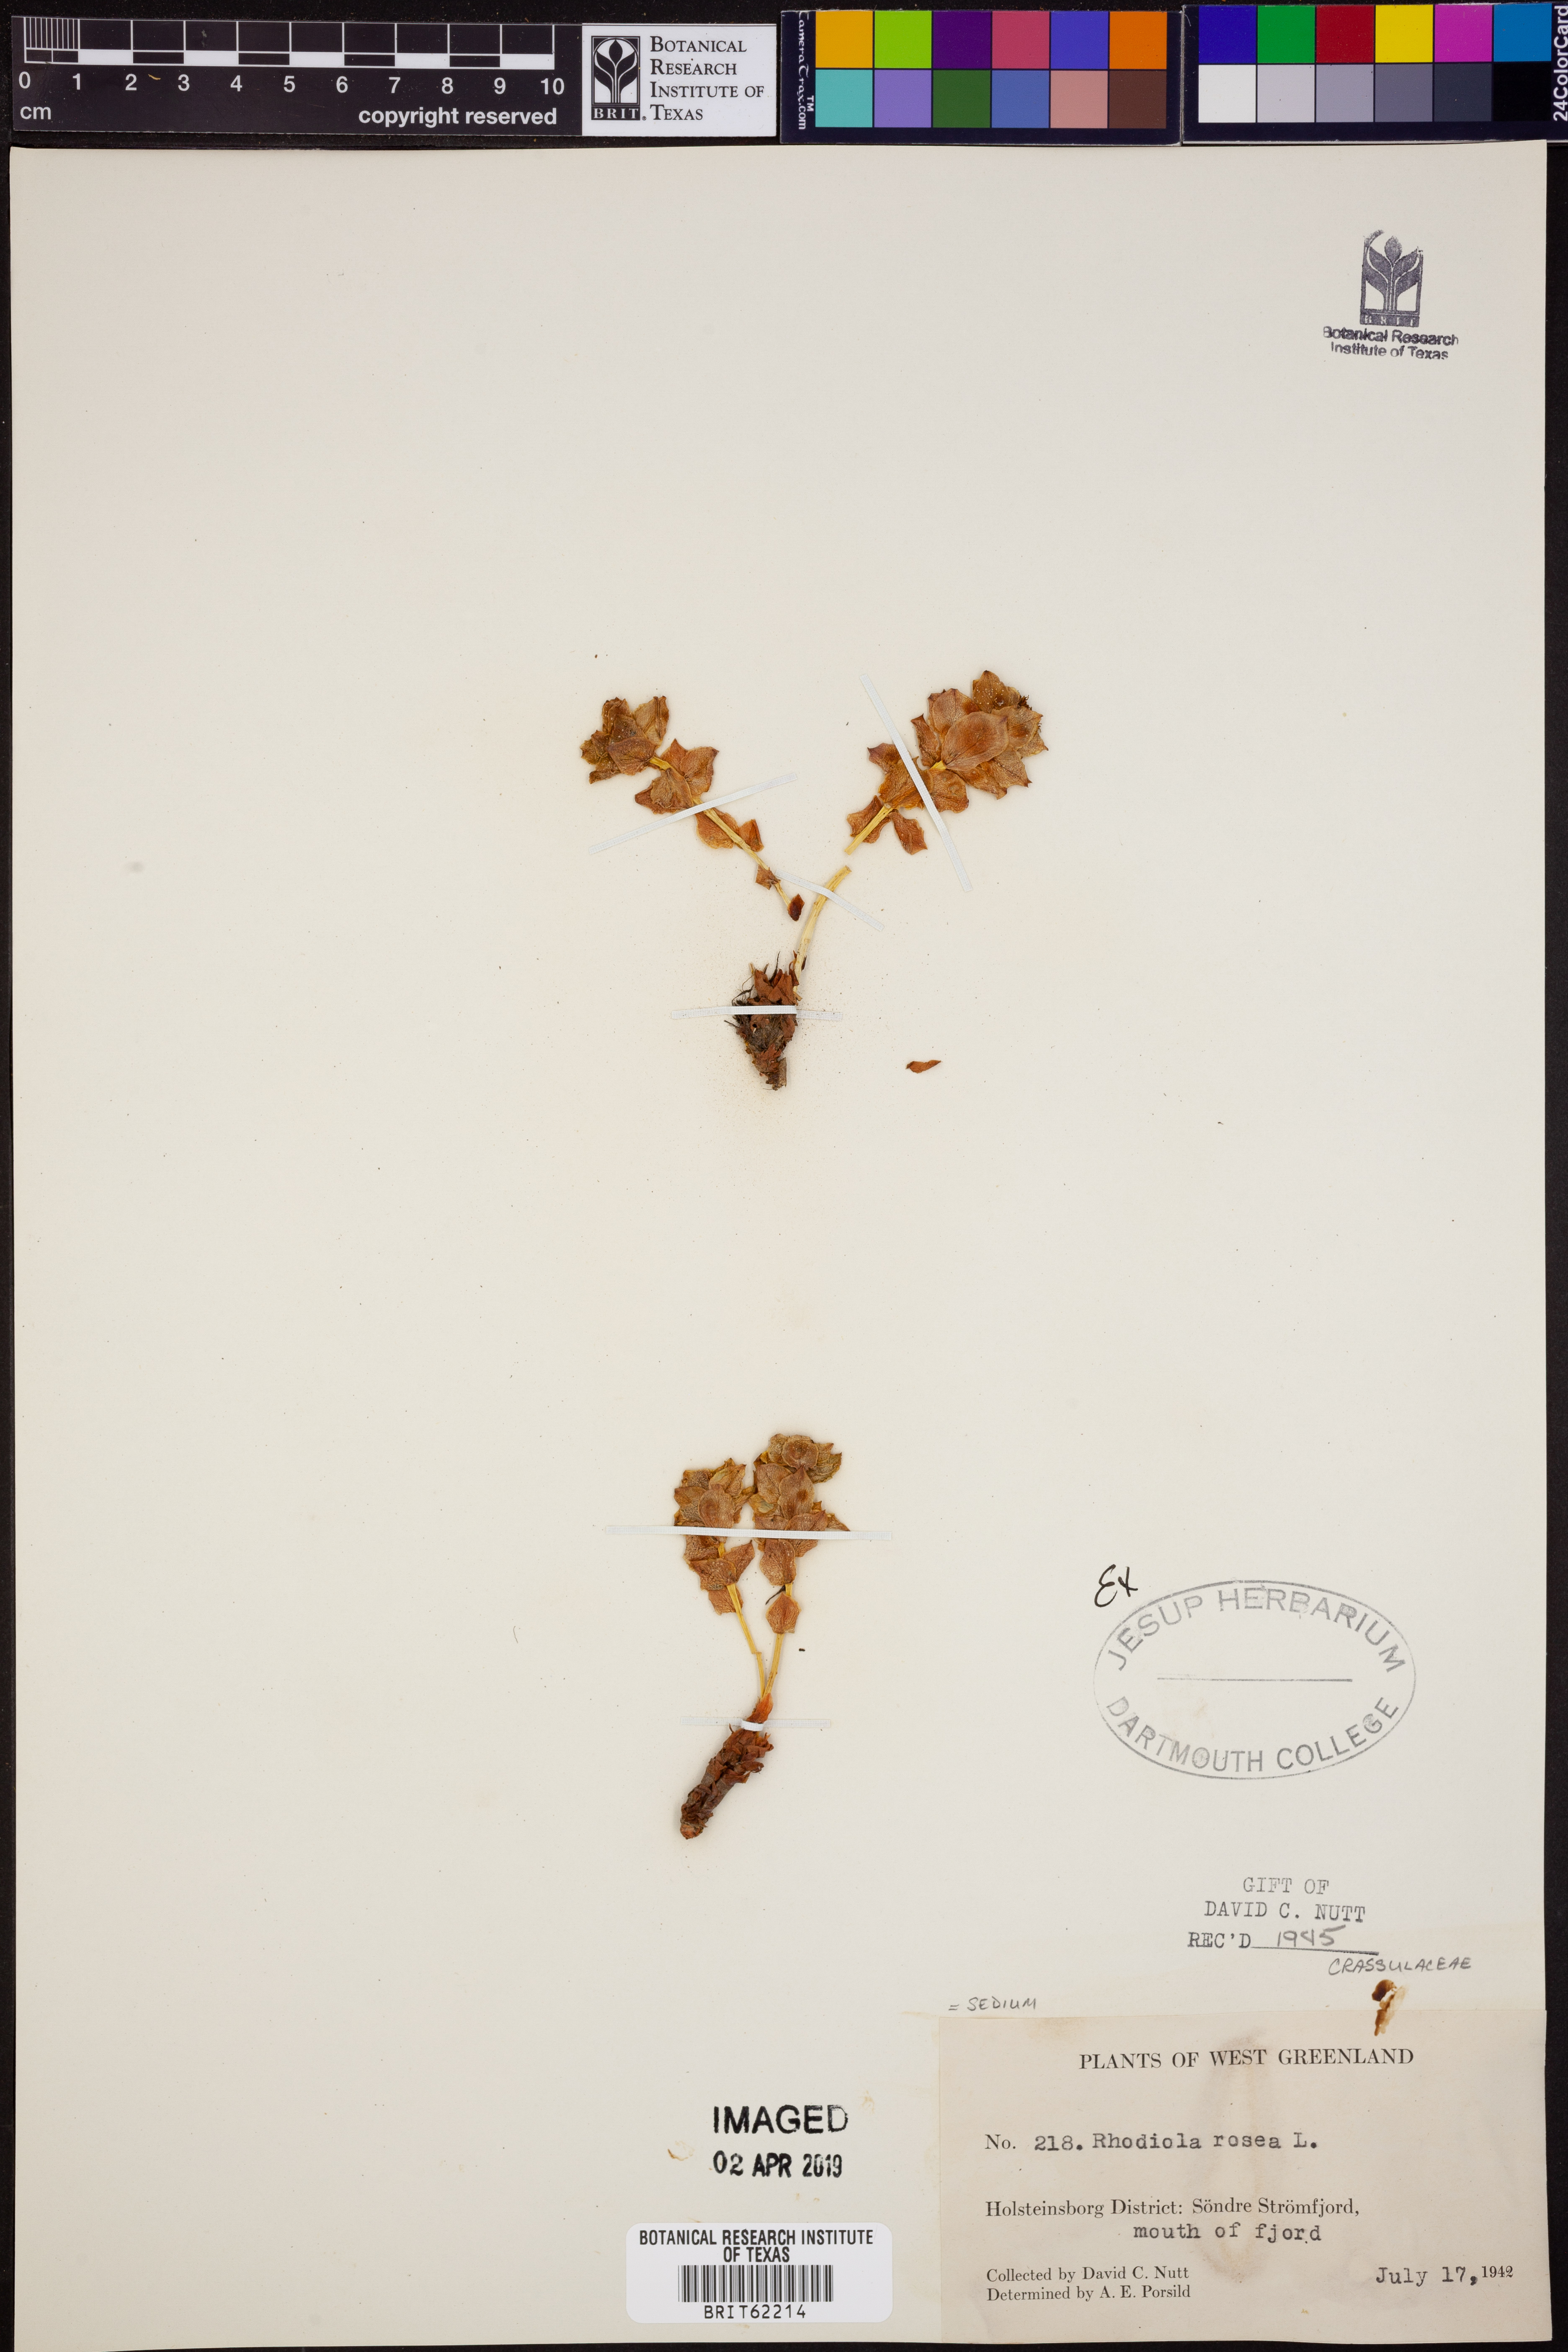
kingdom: Plantae
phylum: Tracheophyta
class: Magnoliopsida
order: Saxifragales
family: Crassulaceae
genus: Rhodiola
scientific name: Rhodiola rosea
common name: Roseroot
